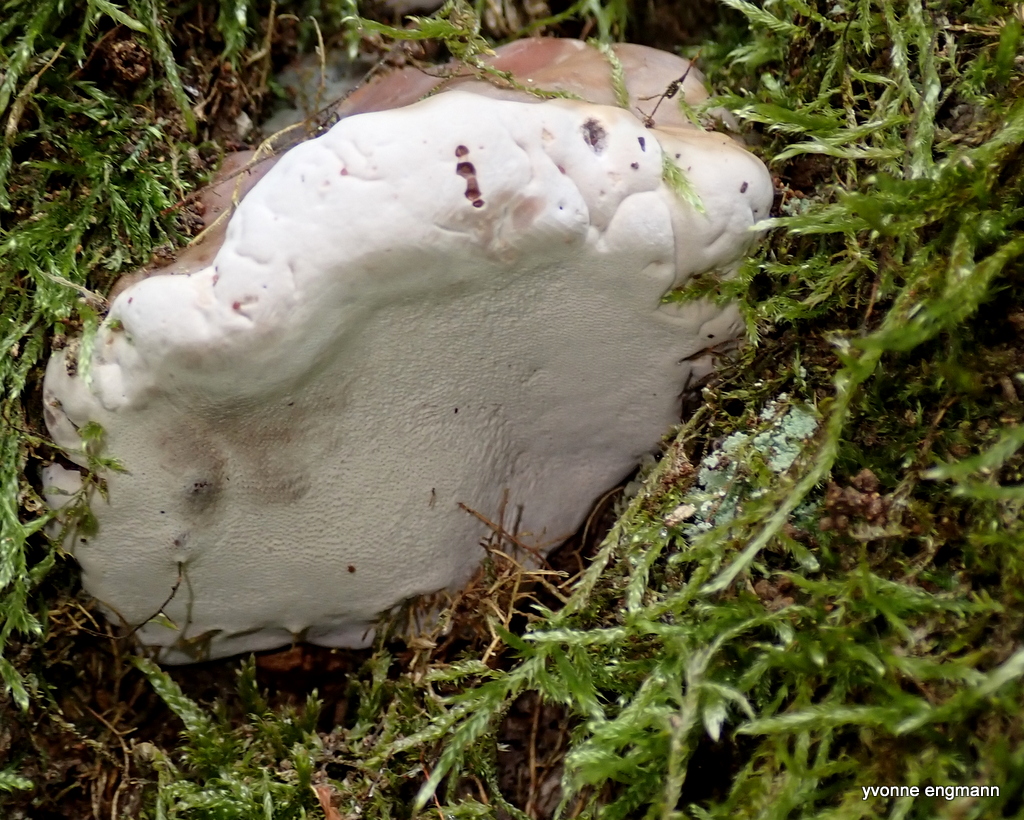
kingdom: Fungi
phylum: Basidiomycota
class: Agaricomycetes
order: Polyporales
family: Polyporaceae
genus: Ganoderma
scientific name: Ganoderma pfeifferi
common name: kobberrød lakporesvamp
